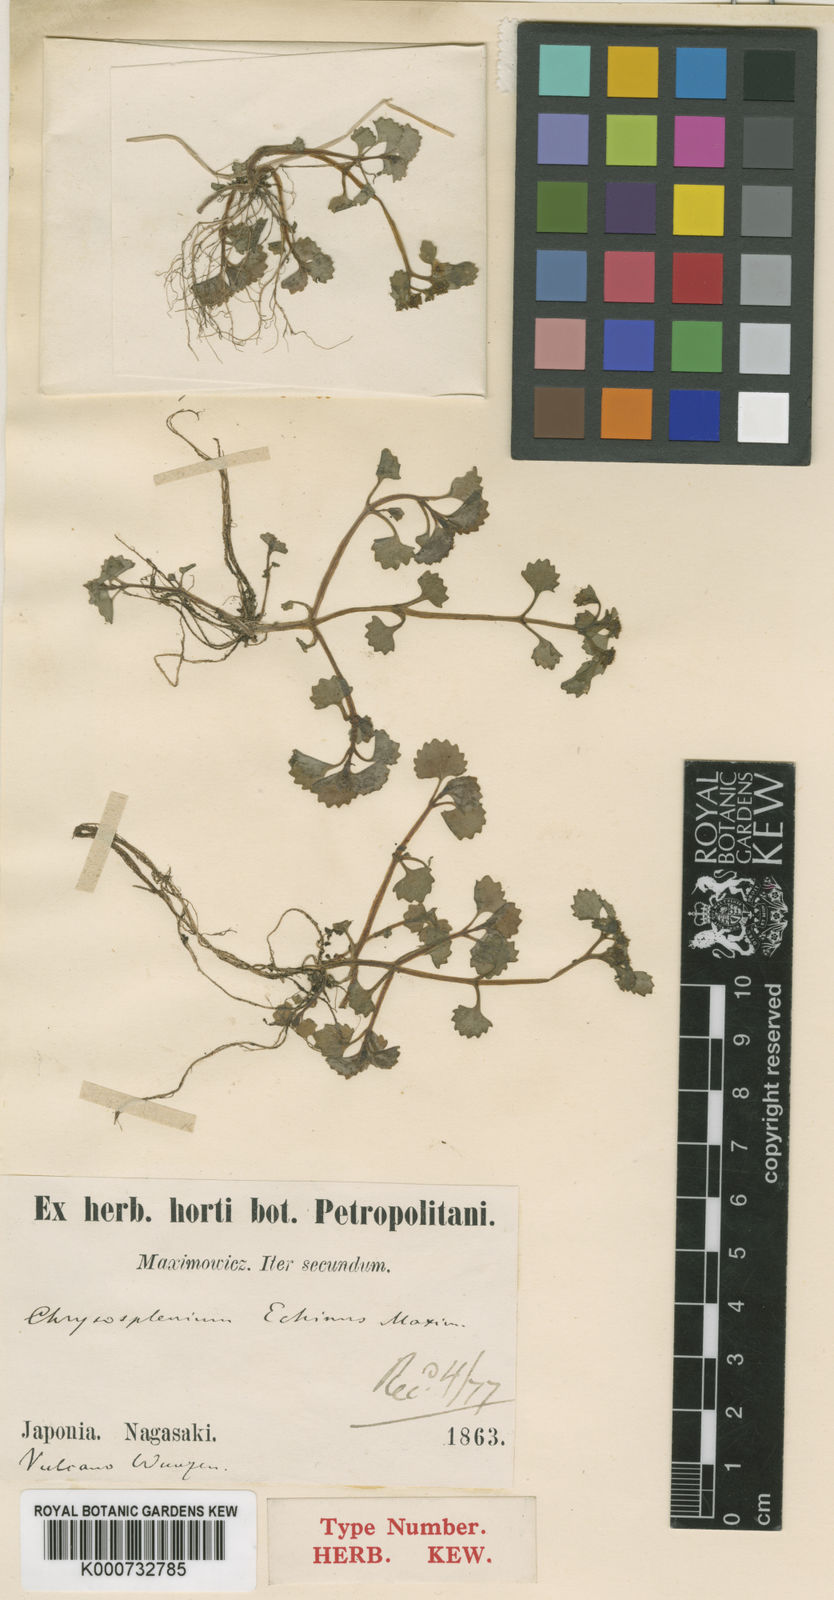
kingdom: Plantae
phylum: Tracheophyta
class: Magnoliopsida
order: Saxifragales
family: Saxifragaceae
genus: Chrysosplenium
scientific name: Chrysosplenium echinus
